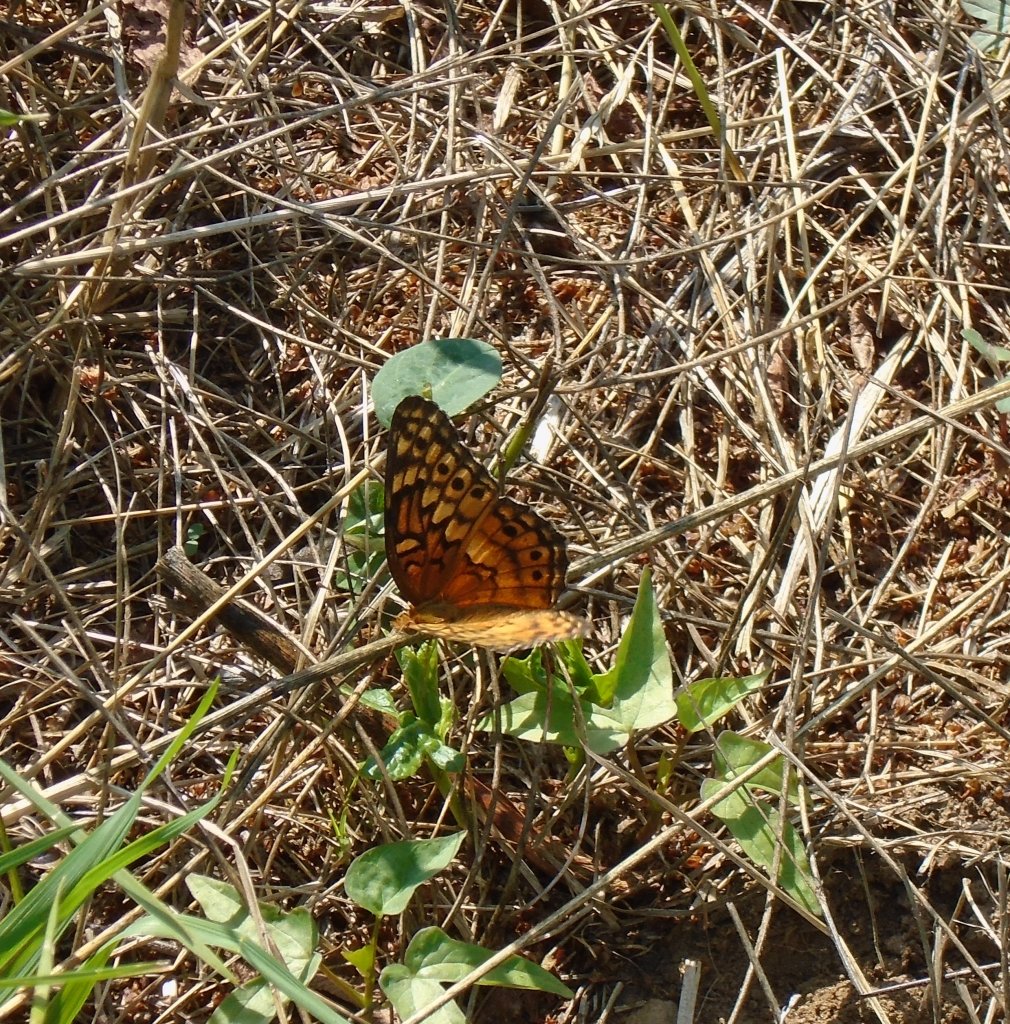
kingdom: Animalia
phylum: Arthropoda
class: Insecta
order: Lepidoptera
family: Nymphalidae
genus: Euptoieta
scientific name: Euptoieta claudia
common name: Variegated Fritillary
